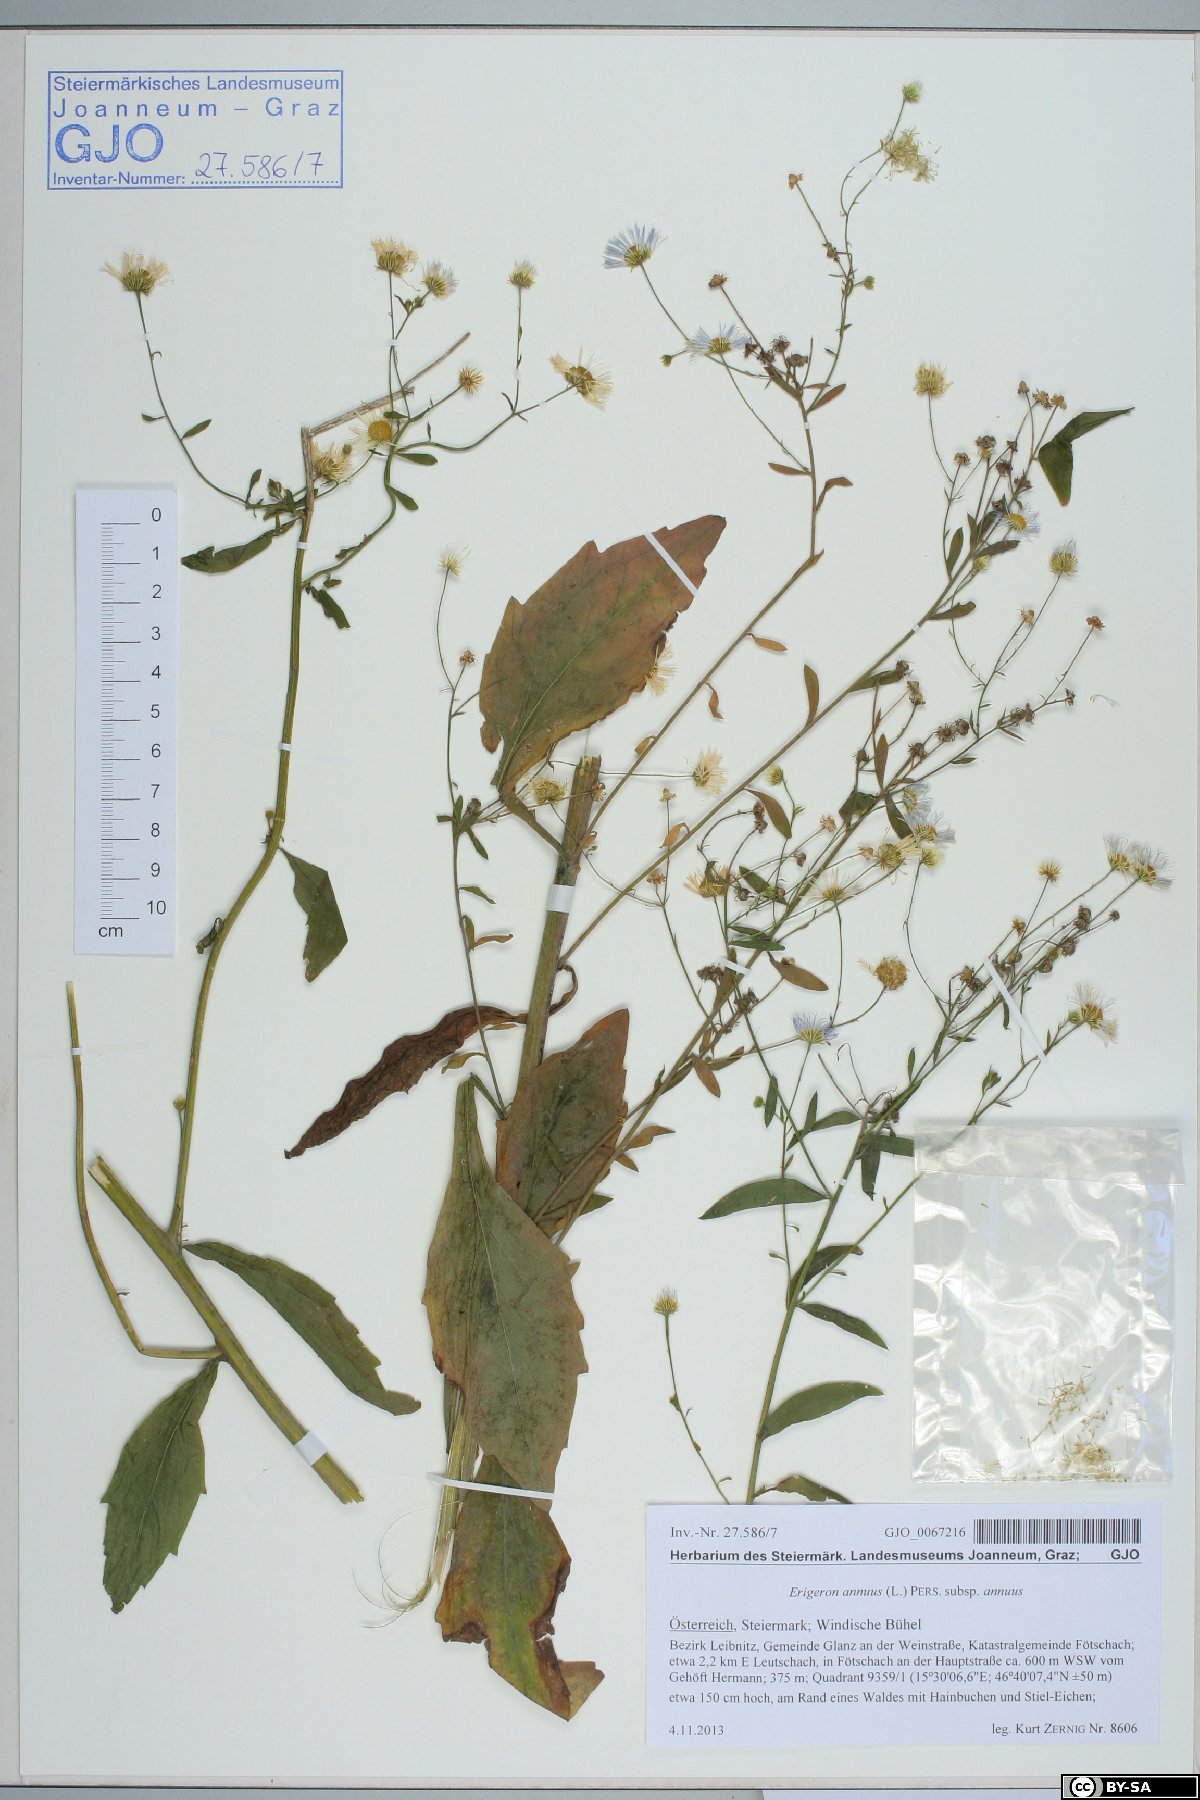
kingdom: Plantae
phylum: Tracheophyta
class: Magnoliopsida
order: Asterales
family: Asteraceae
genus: Erigeron
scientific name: Erigeron annuus
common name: Tall fleabane
